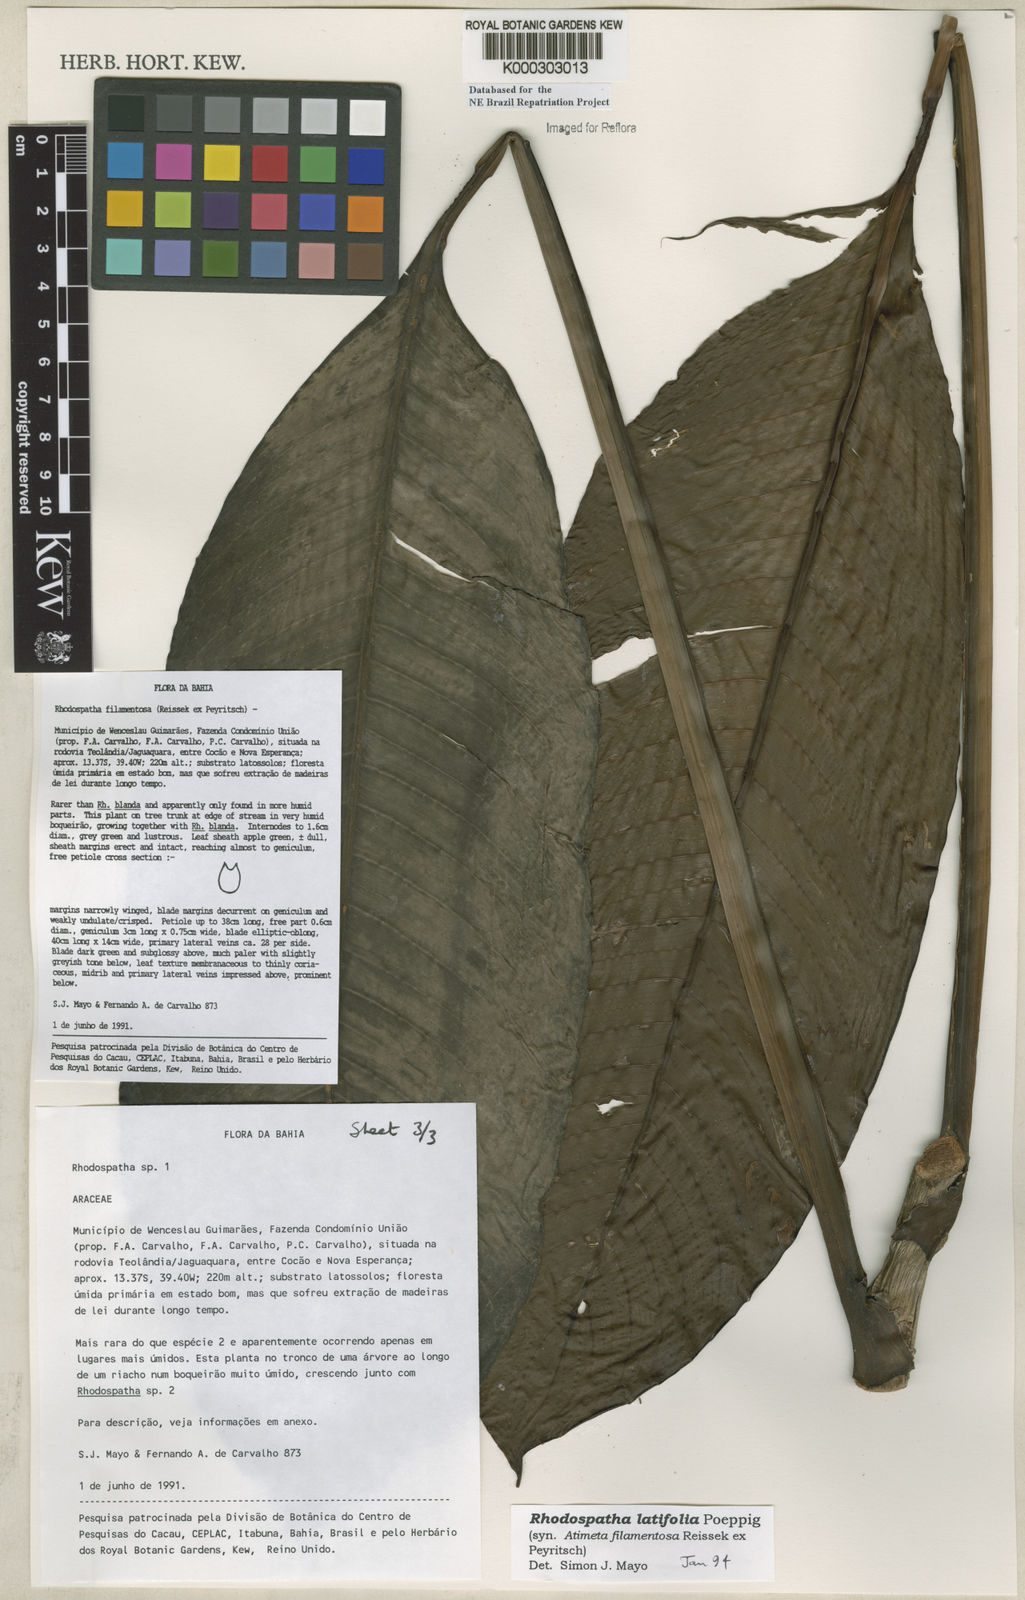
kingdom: Plantae
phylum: Tracheophyta
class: Liliopsida
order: Alismatales
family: Araceae
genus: Rhodospatha
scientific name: Rhodospatha latifolia
